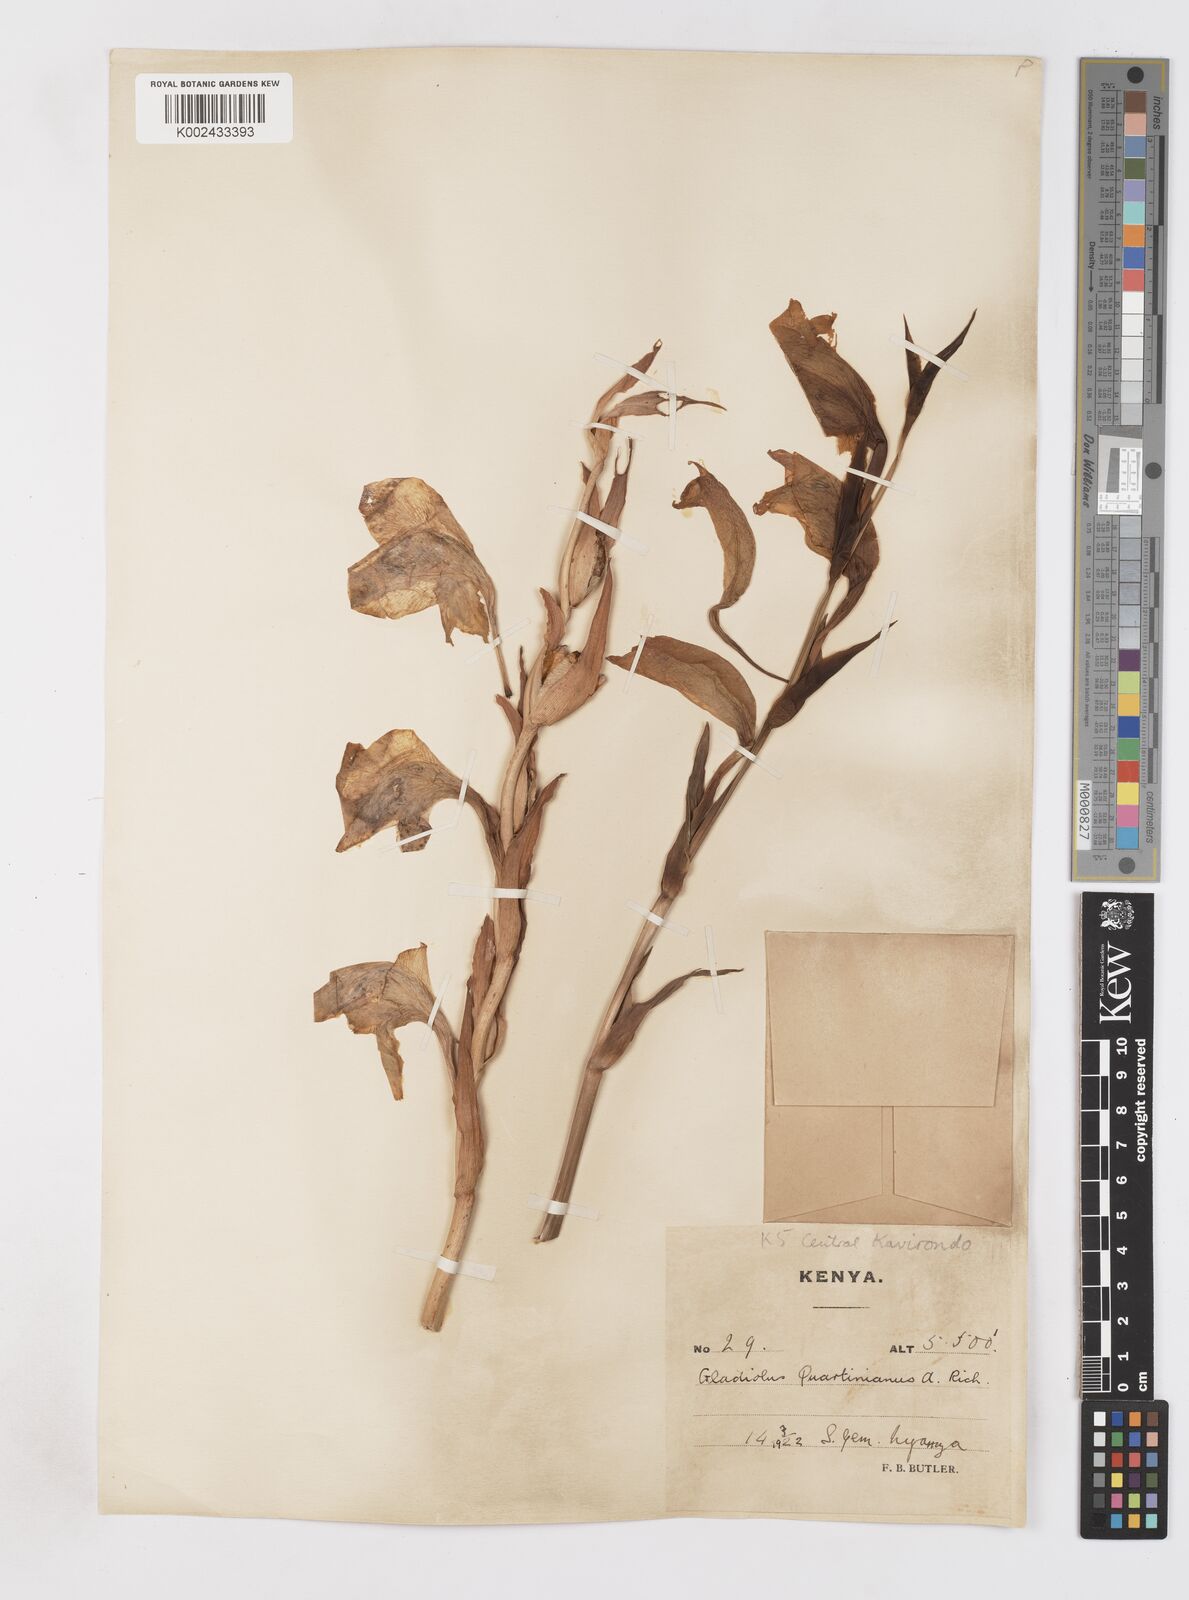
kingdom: Plantae
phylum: Tracheophyta
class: Liliopsida
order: Asparagales
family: Iridaceae
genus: Gladiolus
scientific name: Gladiolus dalenii
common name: Cornflag
